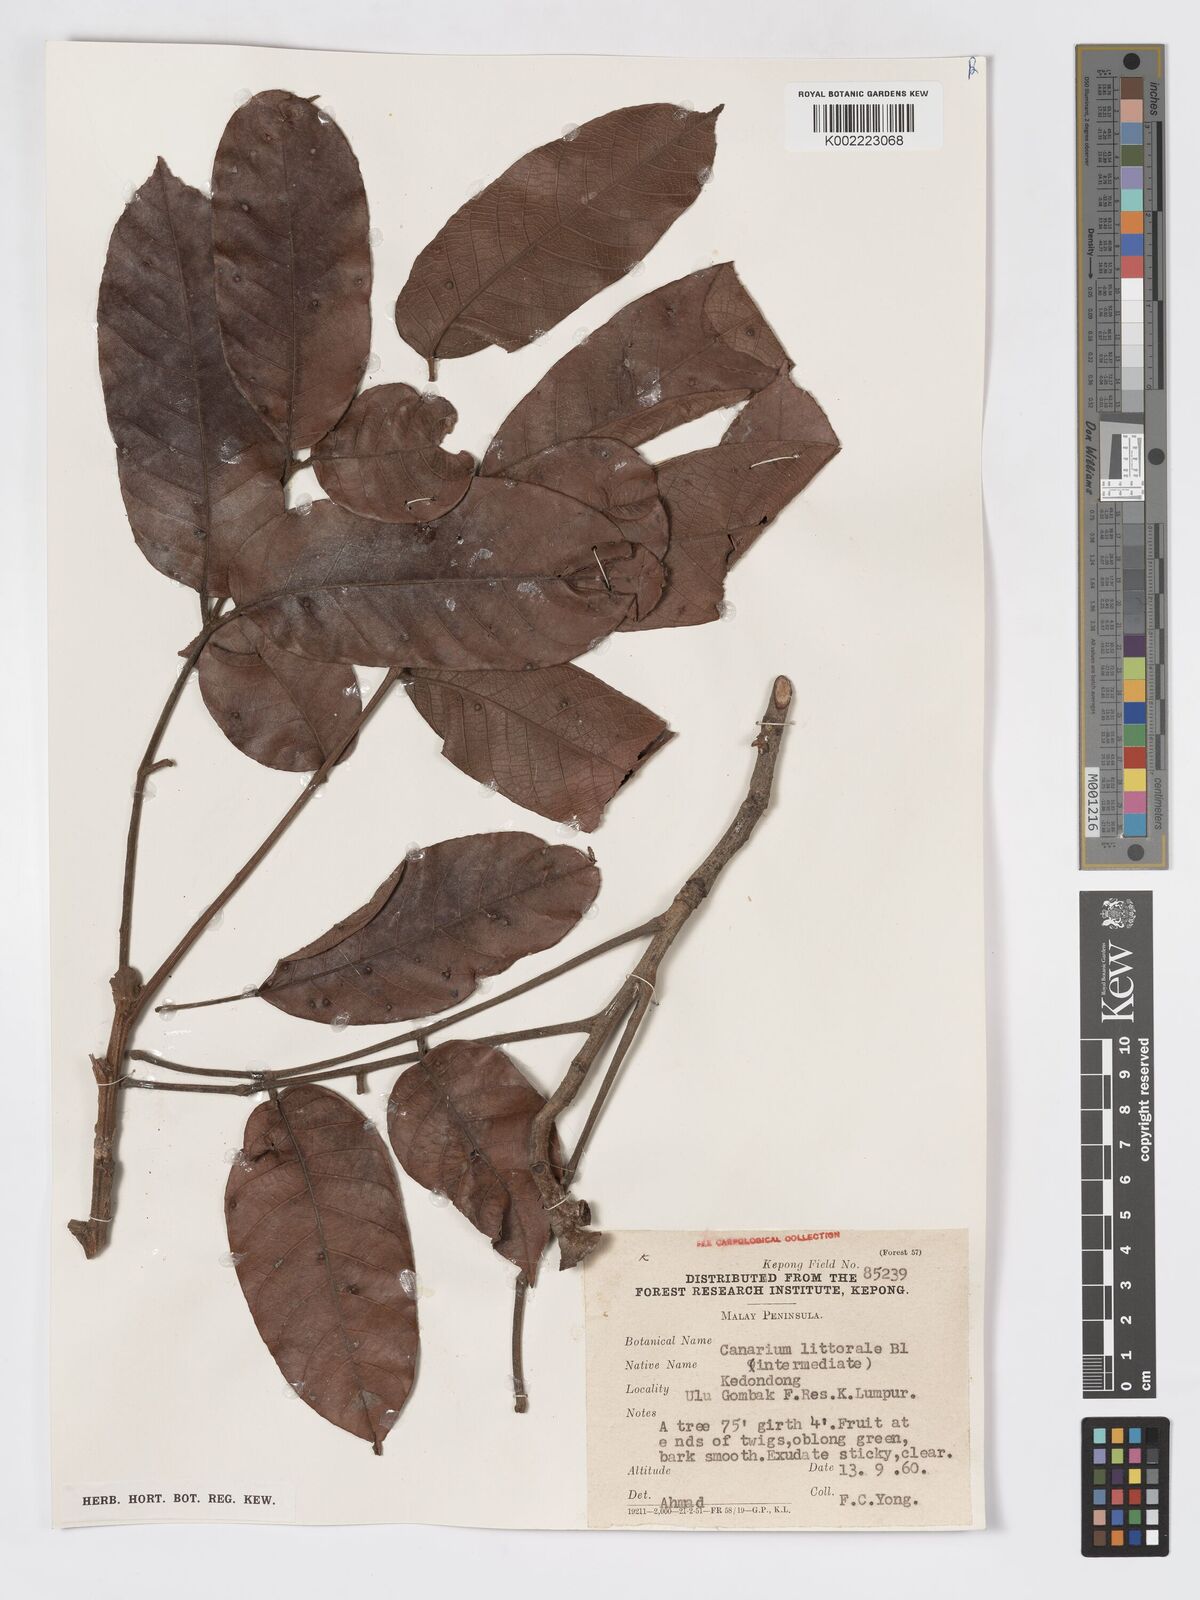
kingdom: Plantae
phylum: Tracheophyta
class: Magnoliopsida
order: Sapindales
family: Burseraceae
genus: Canarium
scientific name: Canarium littorale
